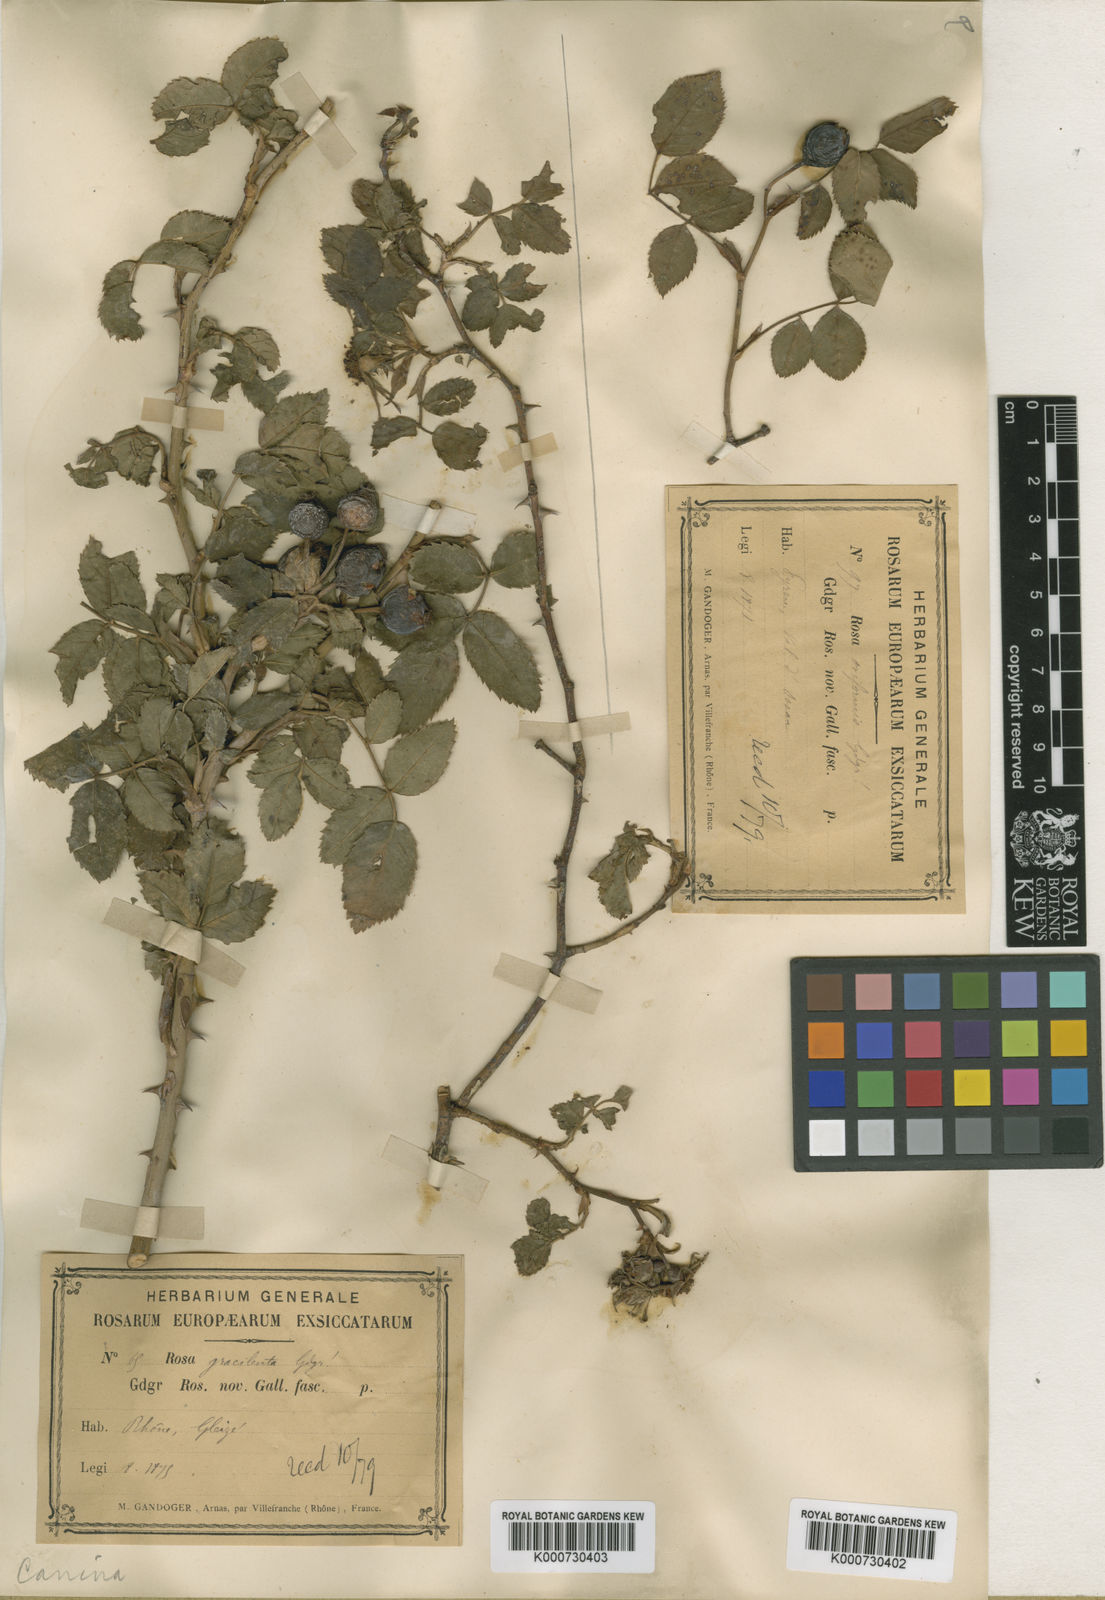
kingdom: Plantae
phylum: Tracheophyta
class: Magnoliopsida
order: Rosales
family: Rosaceae
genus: Rosa
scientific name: Rosa canina
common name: Dog rose
